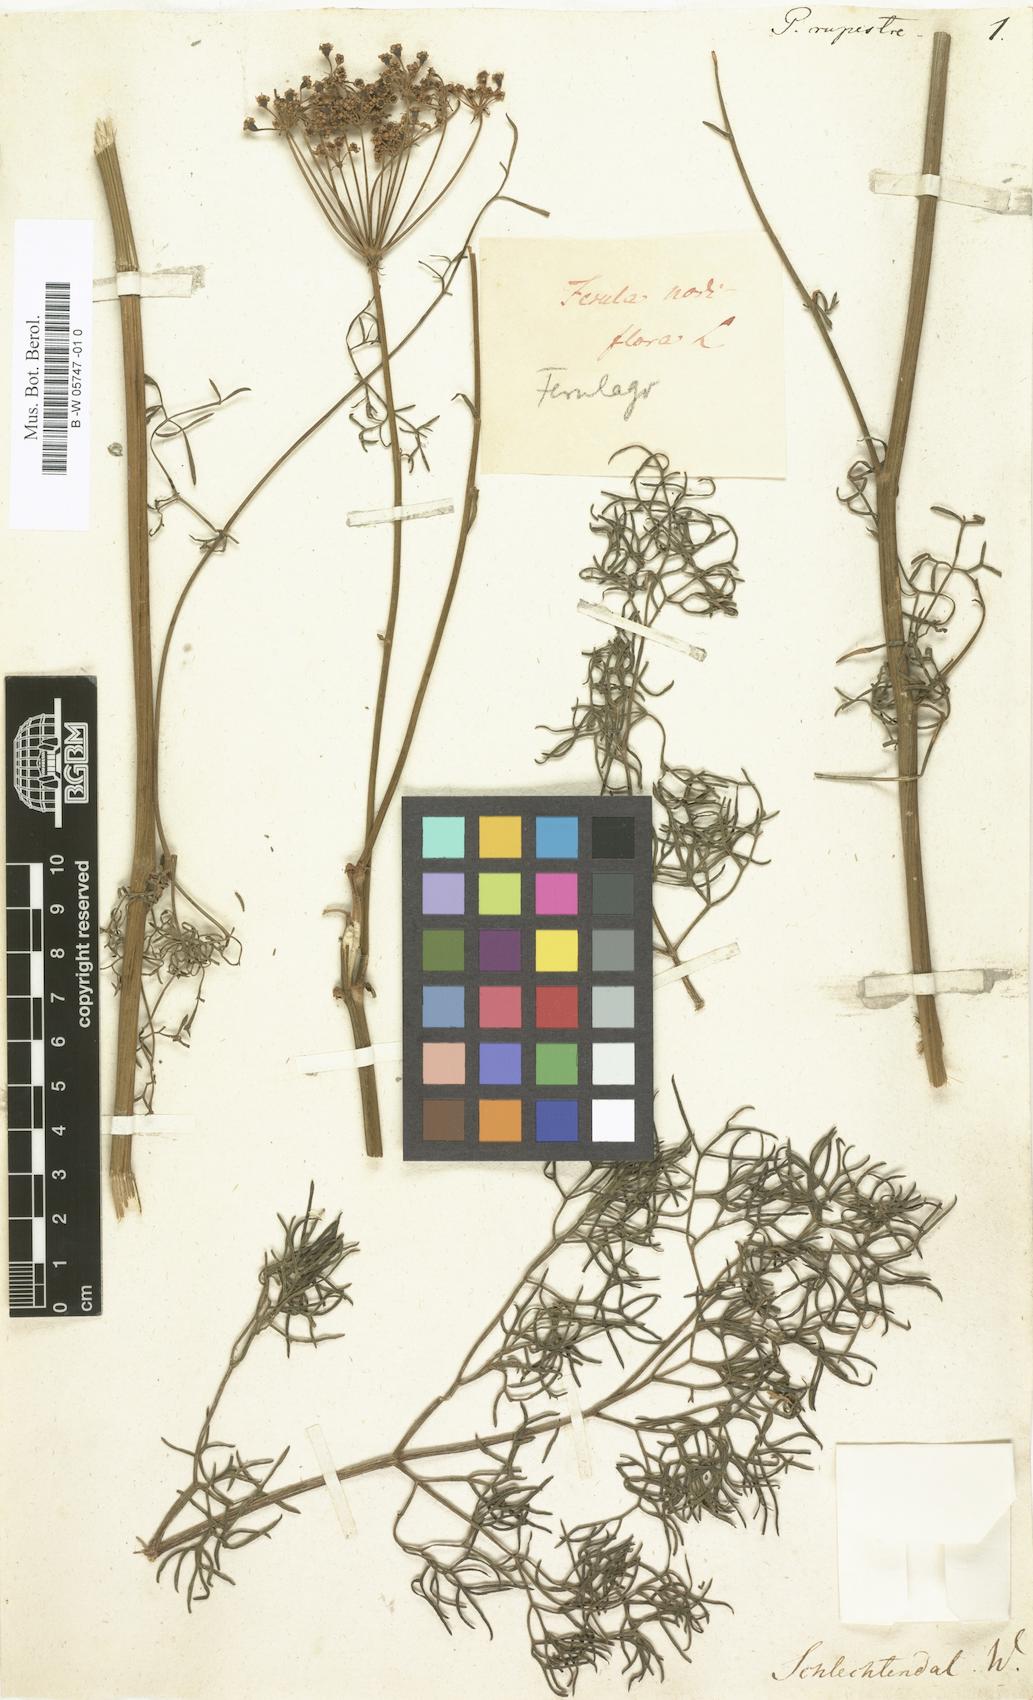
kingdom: Plantae
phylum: Tracheophyta
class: Magnoliopsida
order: Apiales
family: Apiaceae
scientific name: Apiaceae
